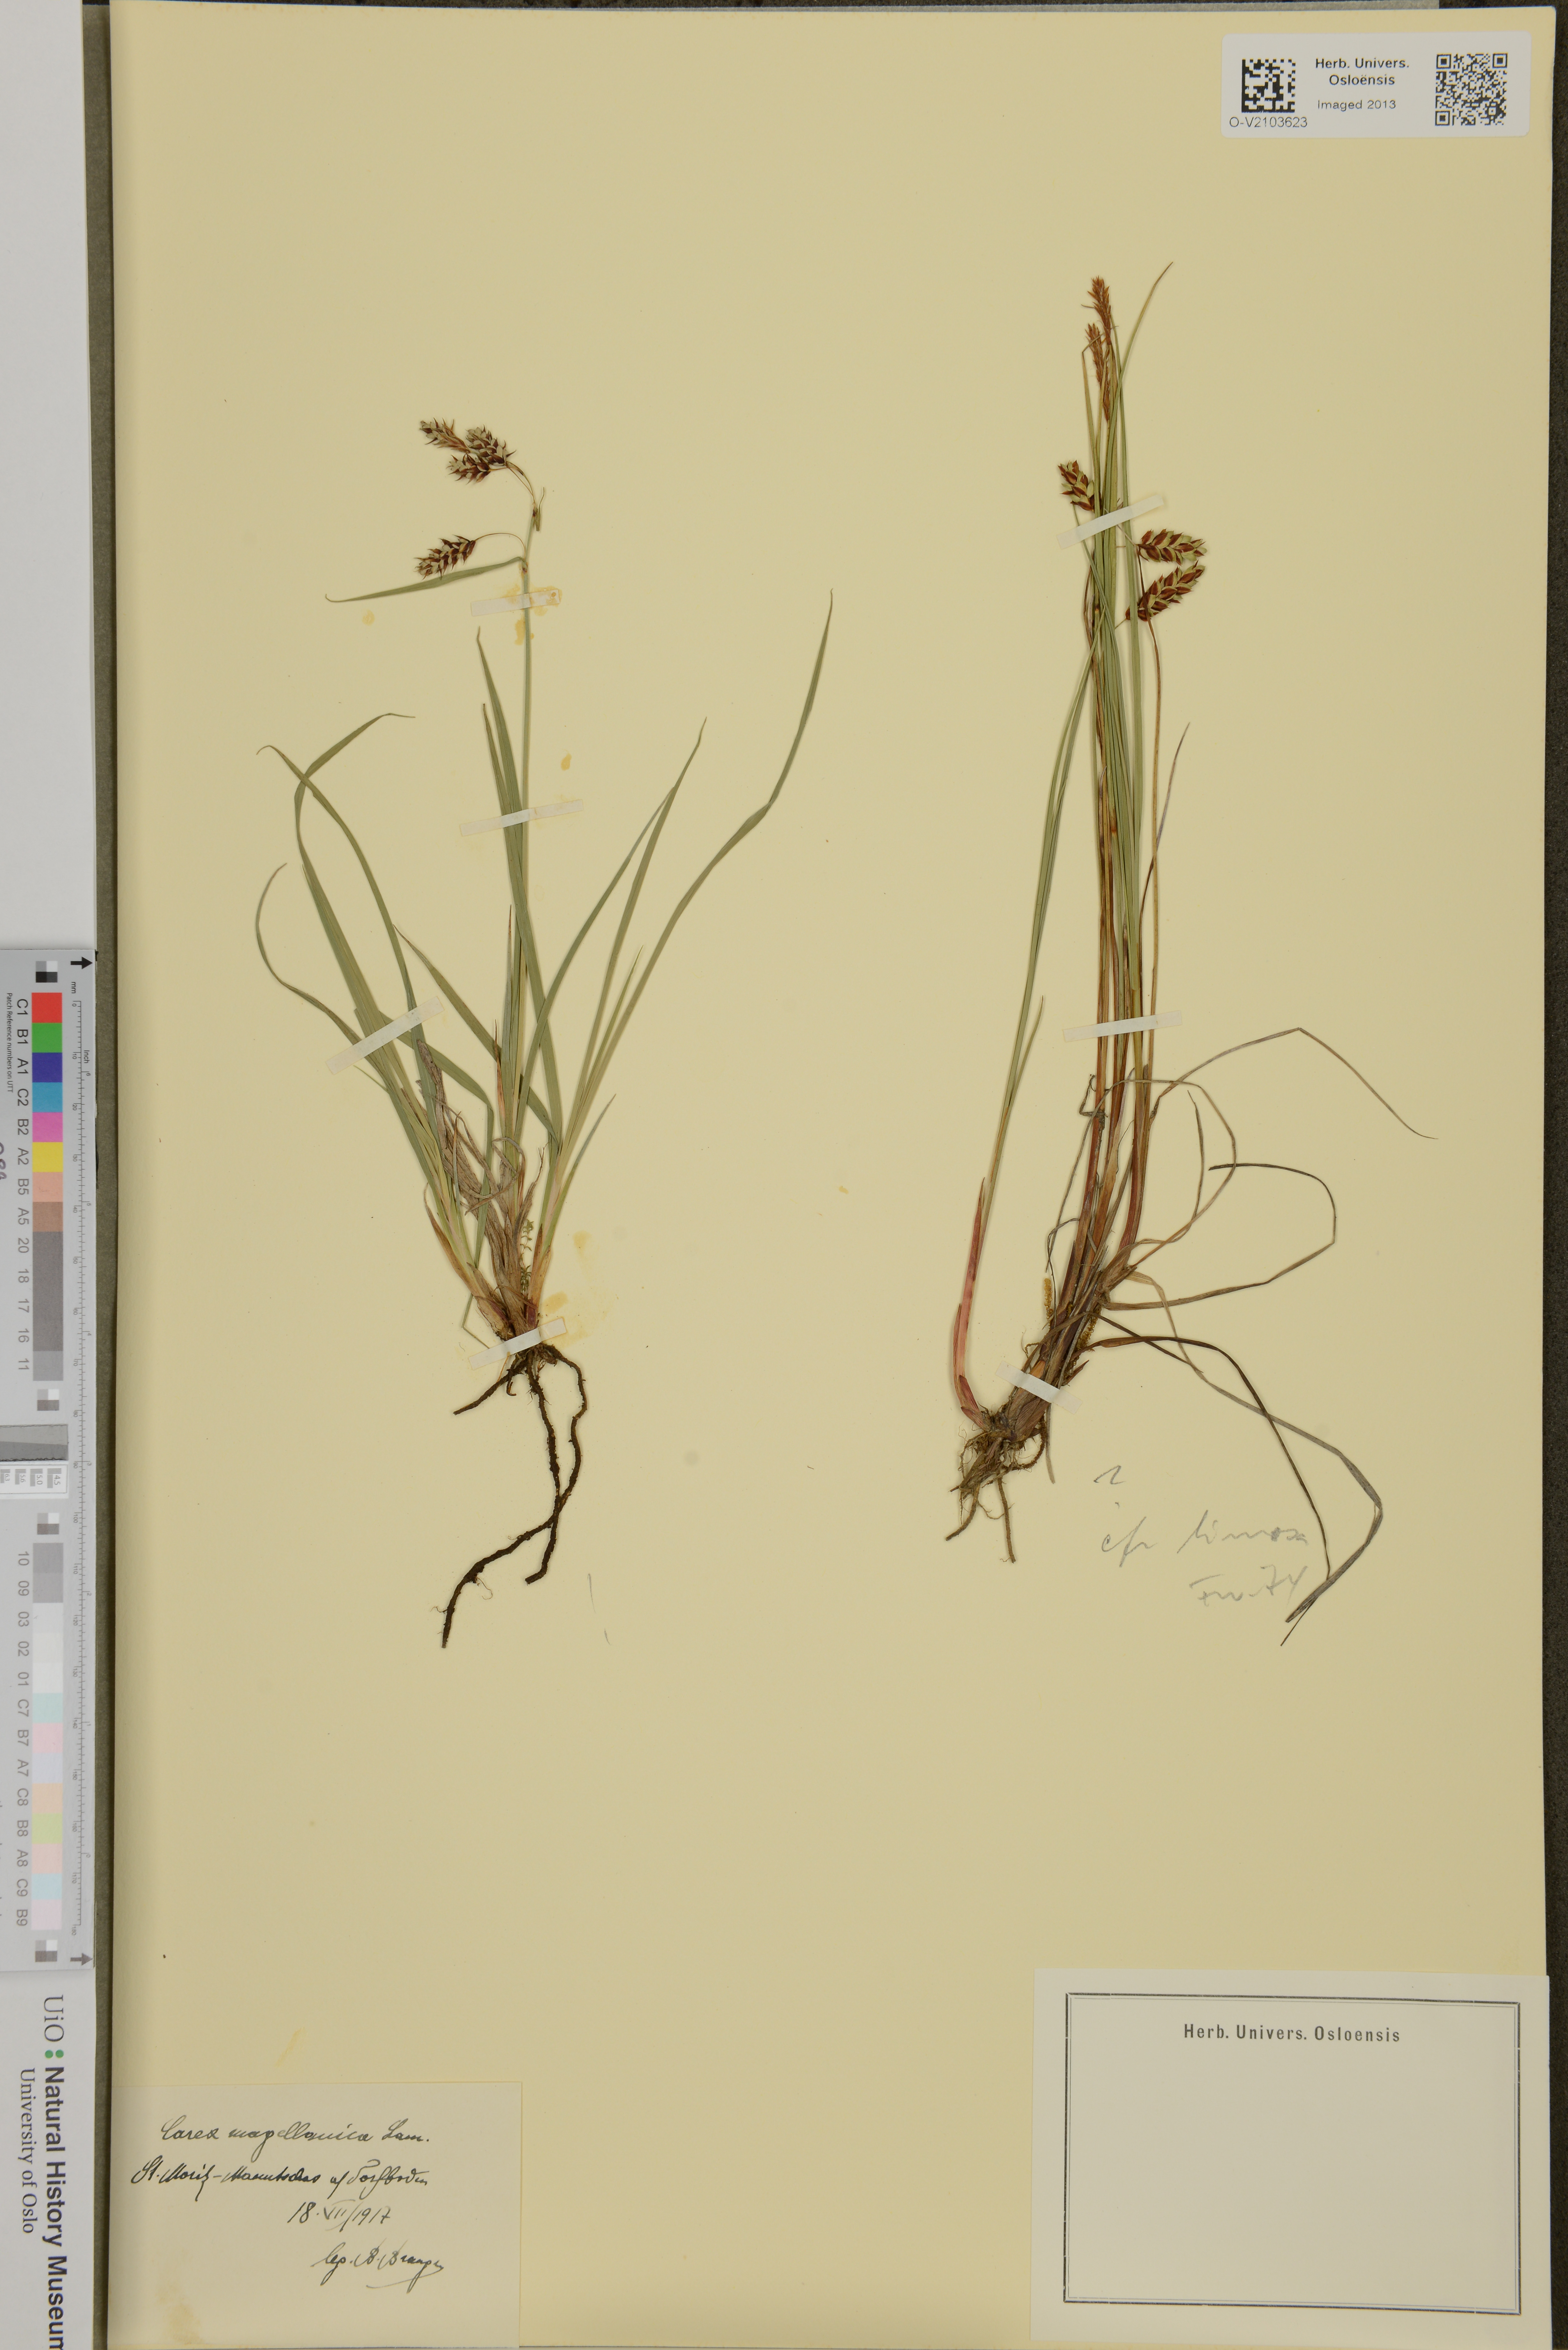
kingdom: Plantae
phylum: Tracheophyta
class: Liliopsida
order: Poales
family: Cyperaceae
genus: Carex
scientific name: Carex magellanica
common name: Bog sedge
